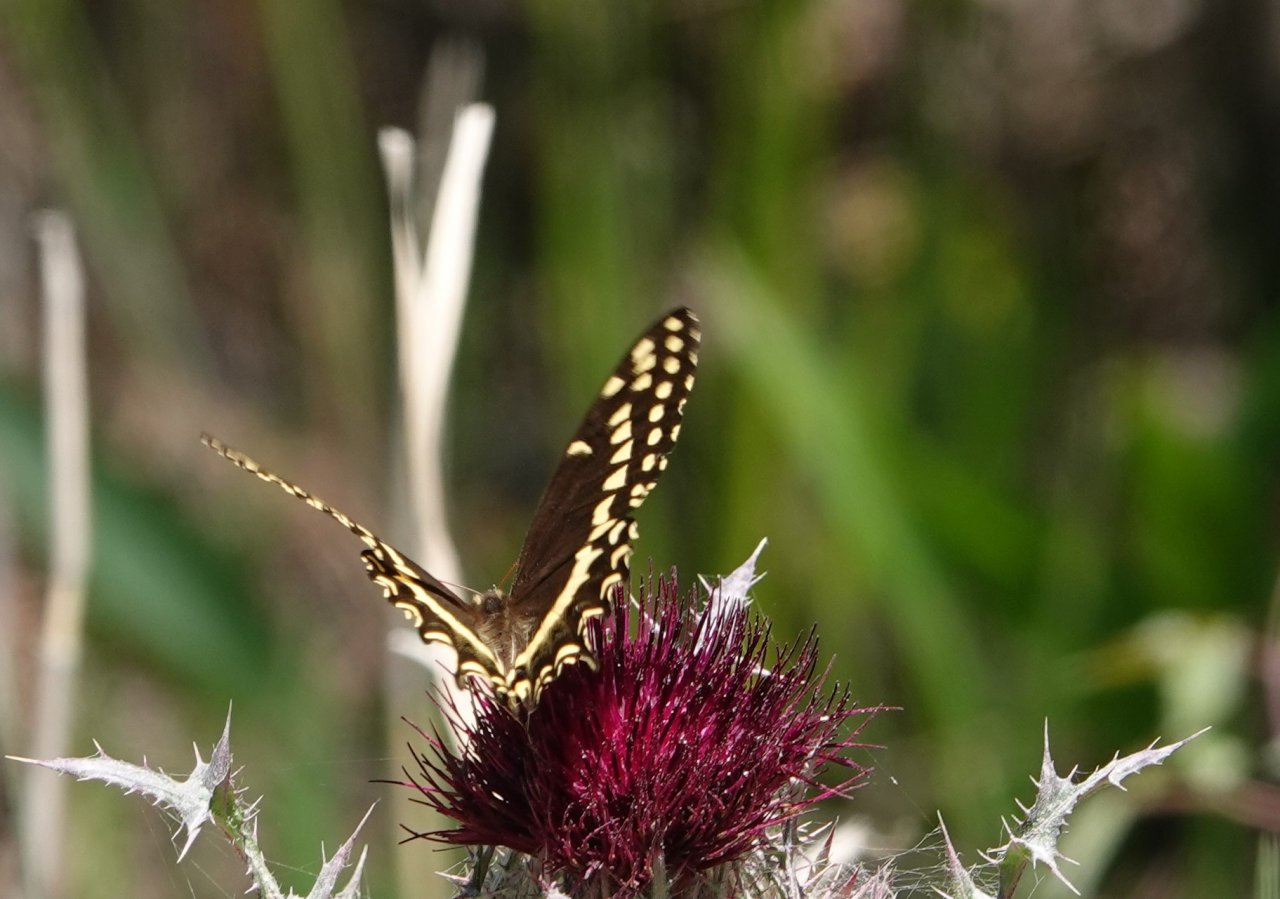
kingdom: Animalia
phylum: Arthropoda
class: Insecta
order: Lepidoptera
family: Papilionidae
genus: Pterourus
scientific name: Pterourus palamedes
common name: Palamedes Swallowtail
